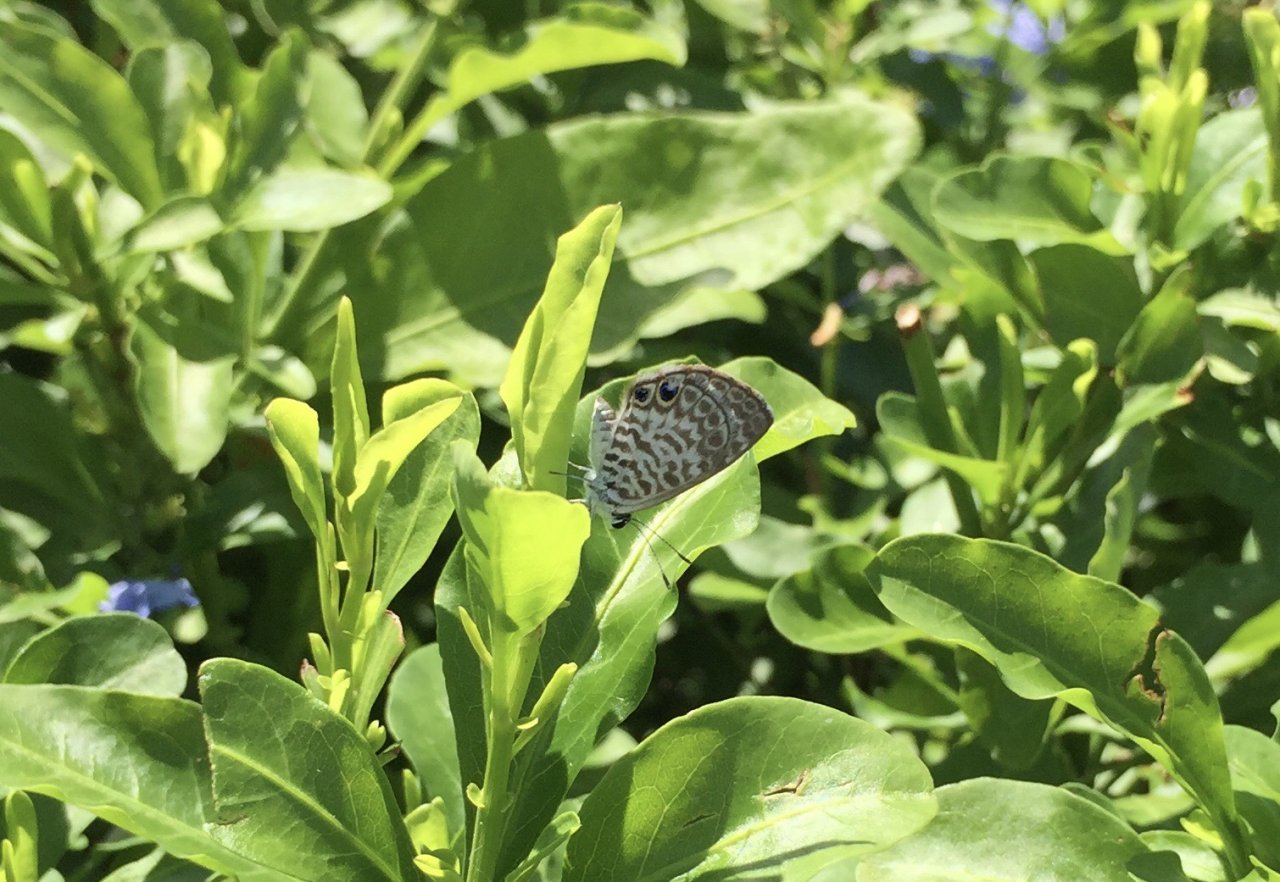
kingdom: Animalia
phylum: Arthropoda
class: Insecta
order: Lepidoptera
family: Lycaenidae
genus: Leptotes
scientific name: Leptotes cassius
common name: Cassius Blue
